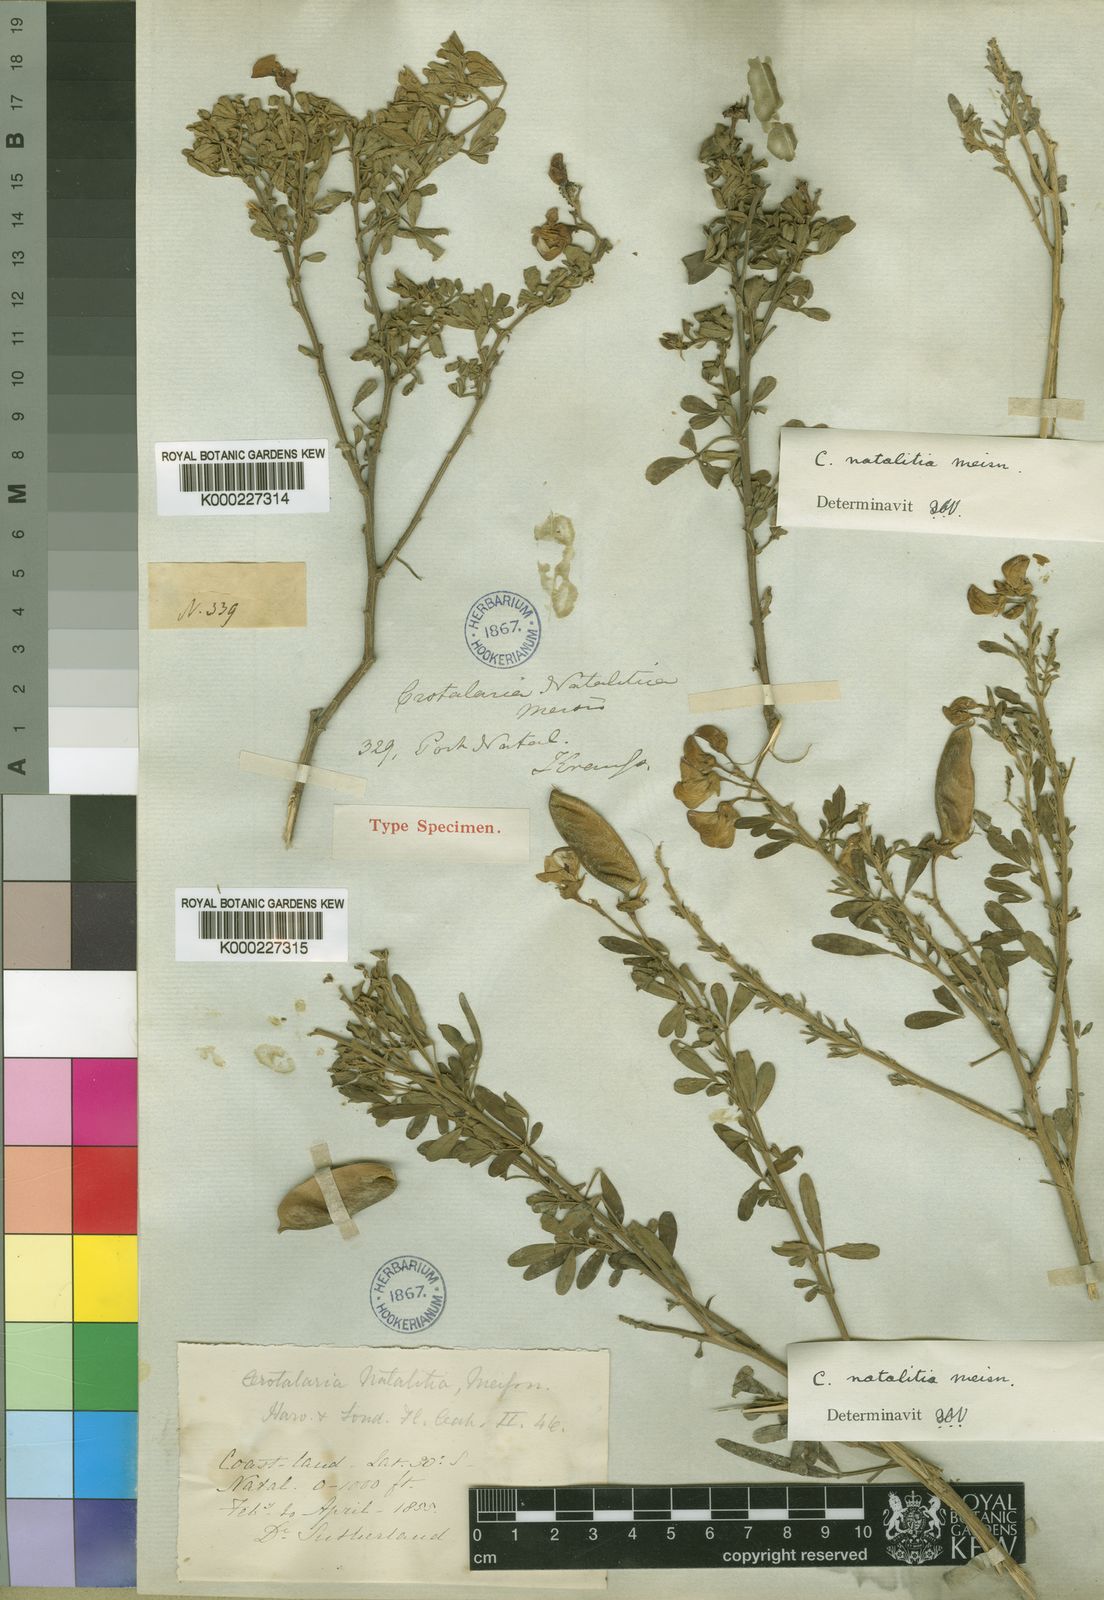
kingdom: Plantae
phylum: Tracheophyta
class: Magnoliopsida
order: Fabales
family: Fabaceae
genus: Crotalaria
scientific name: Crotalaria natalitia
